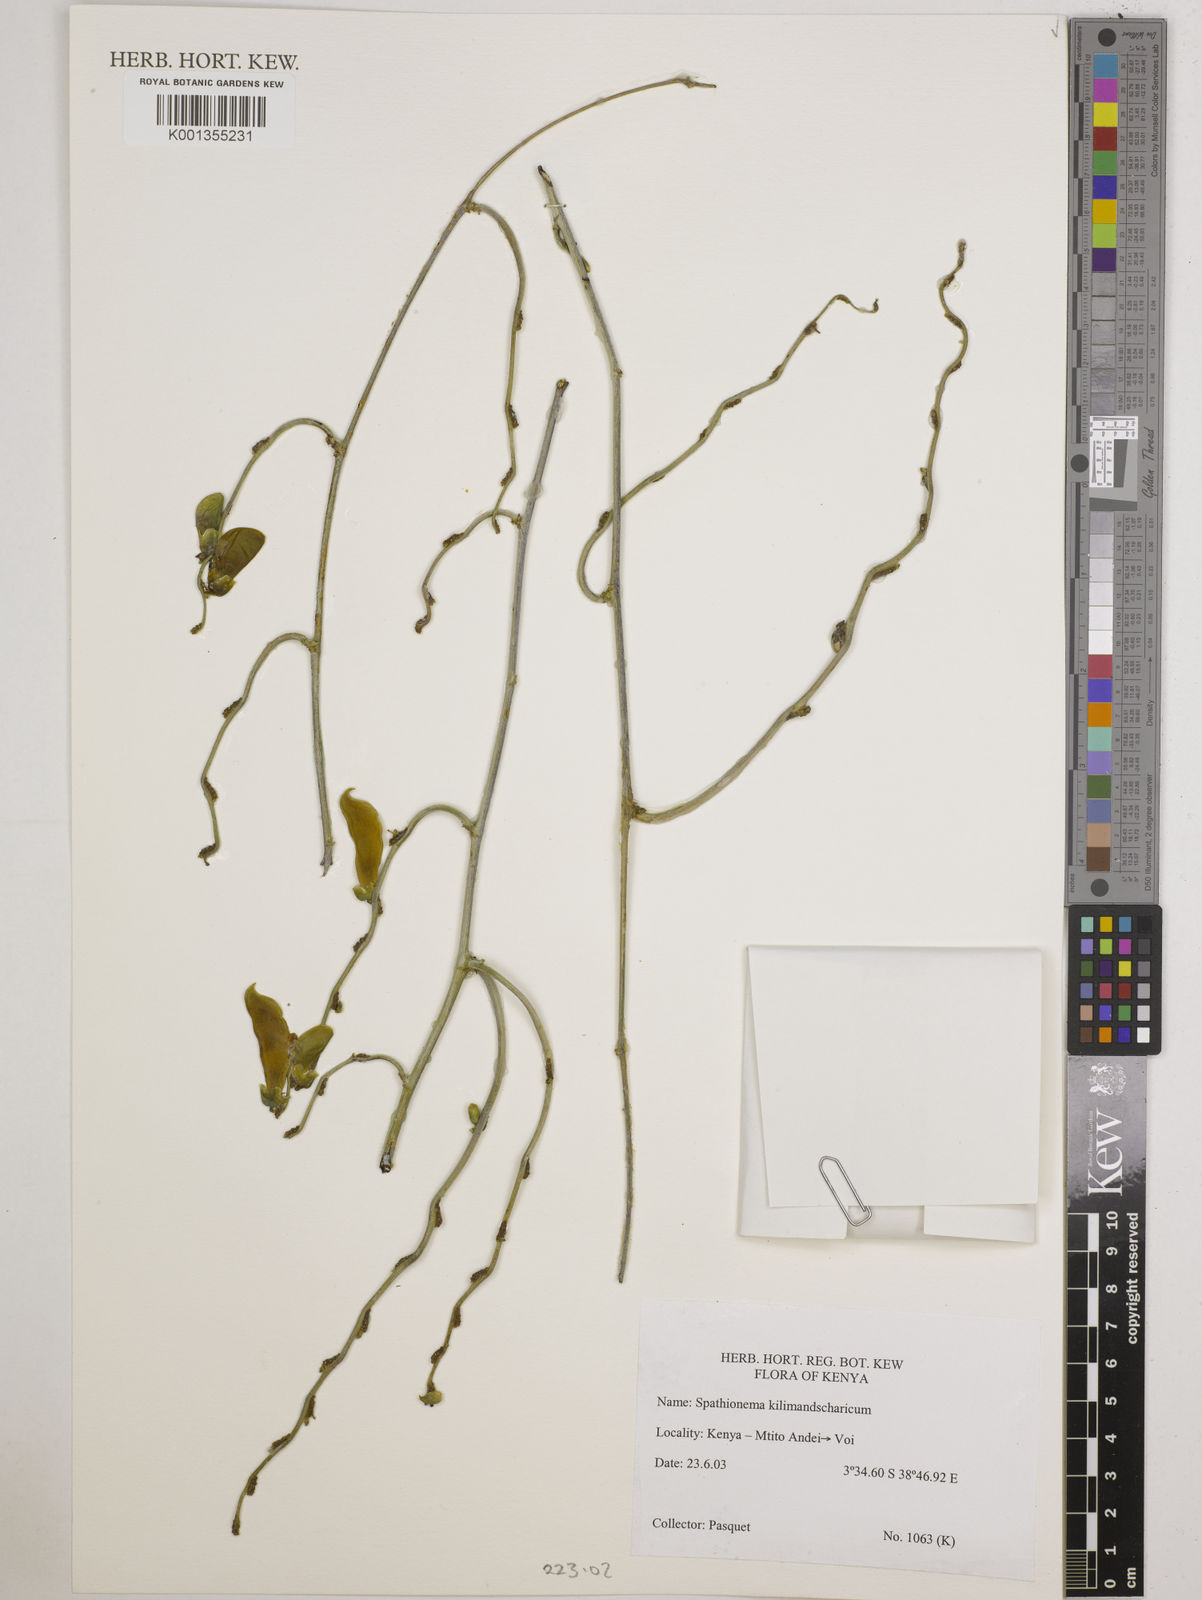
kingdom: Plantae
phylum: Tracheophyta
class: Magnoliopsida
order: Fabales
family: Fabaceae
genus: Spathionema
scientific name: Spathionema kilimandscharicum
